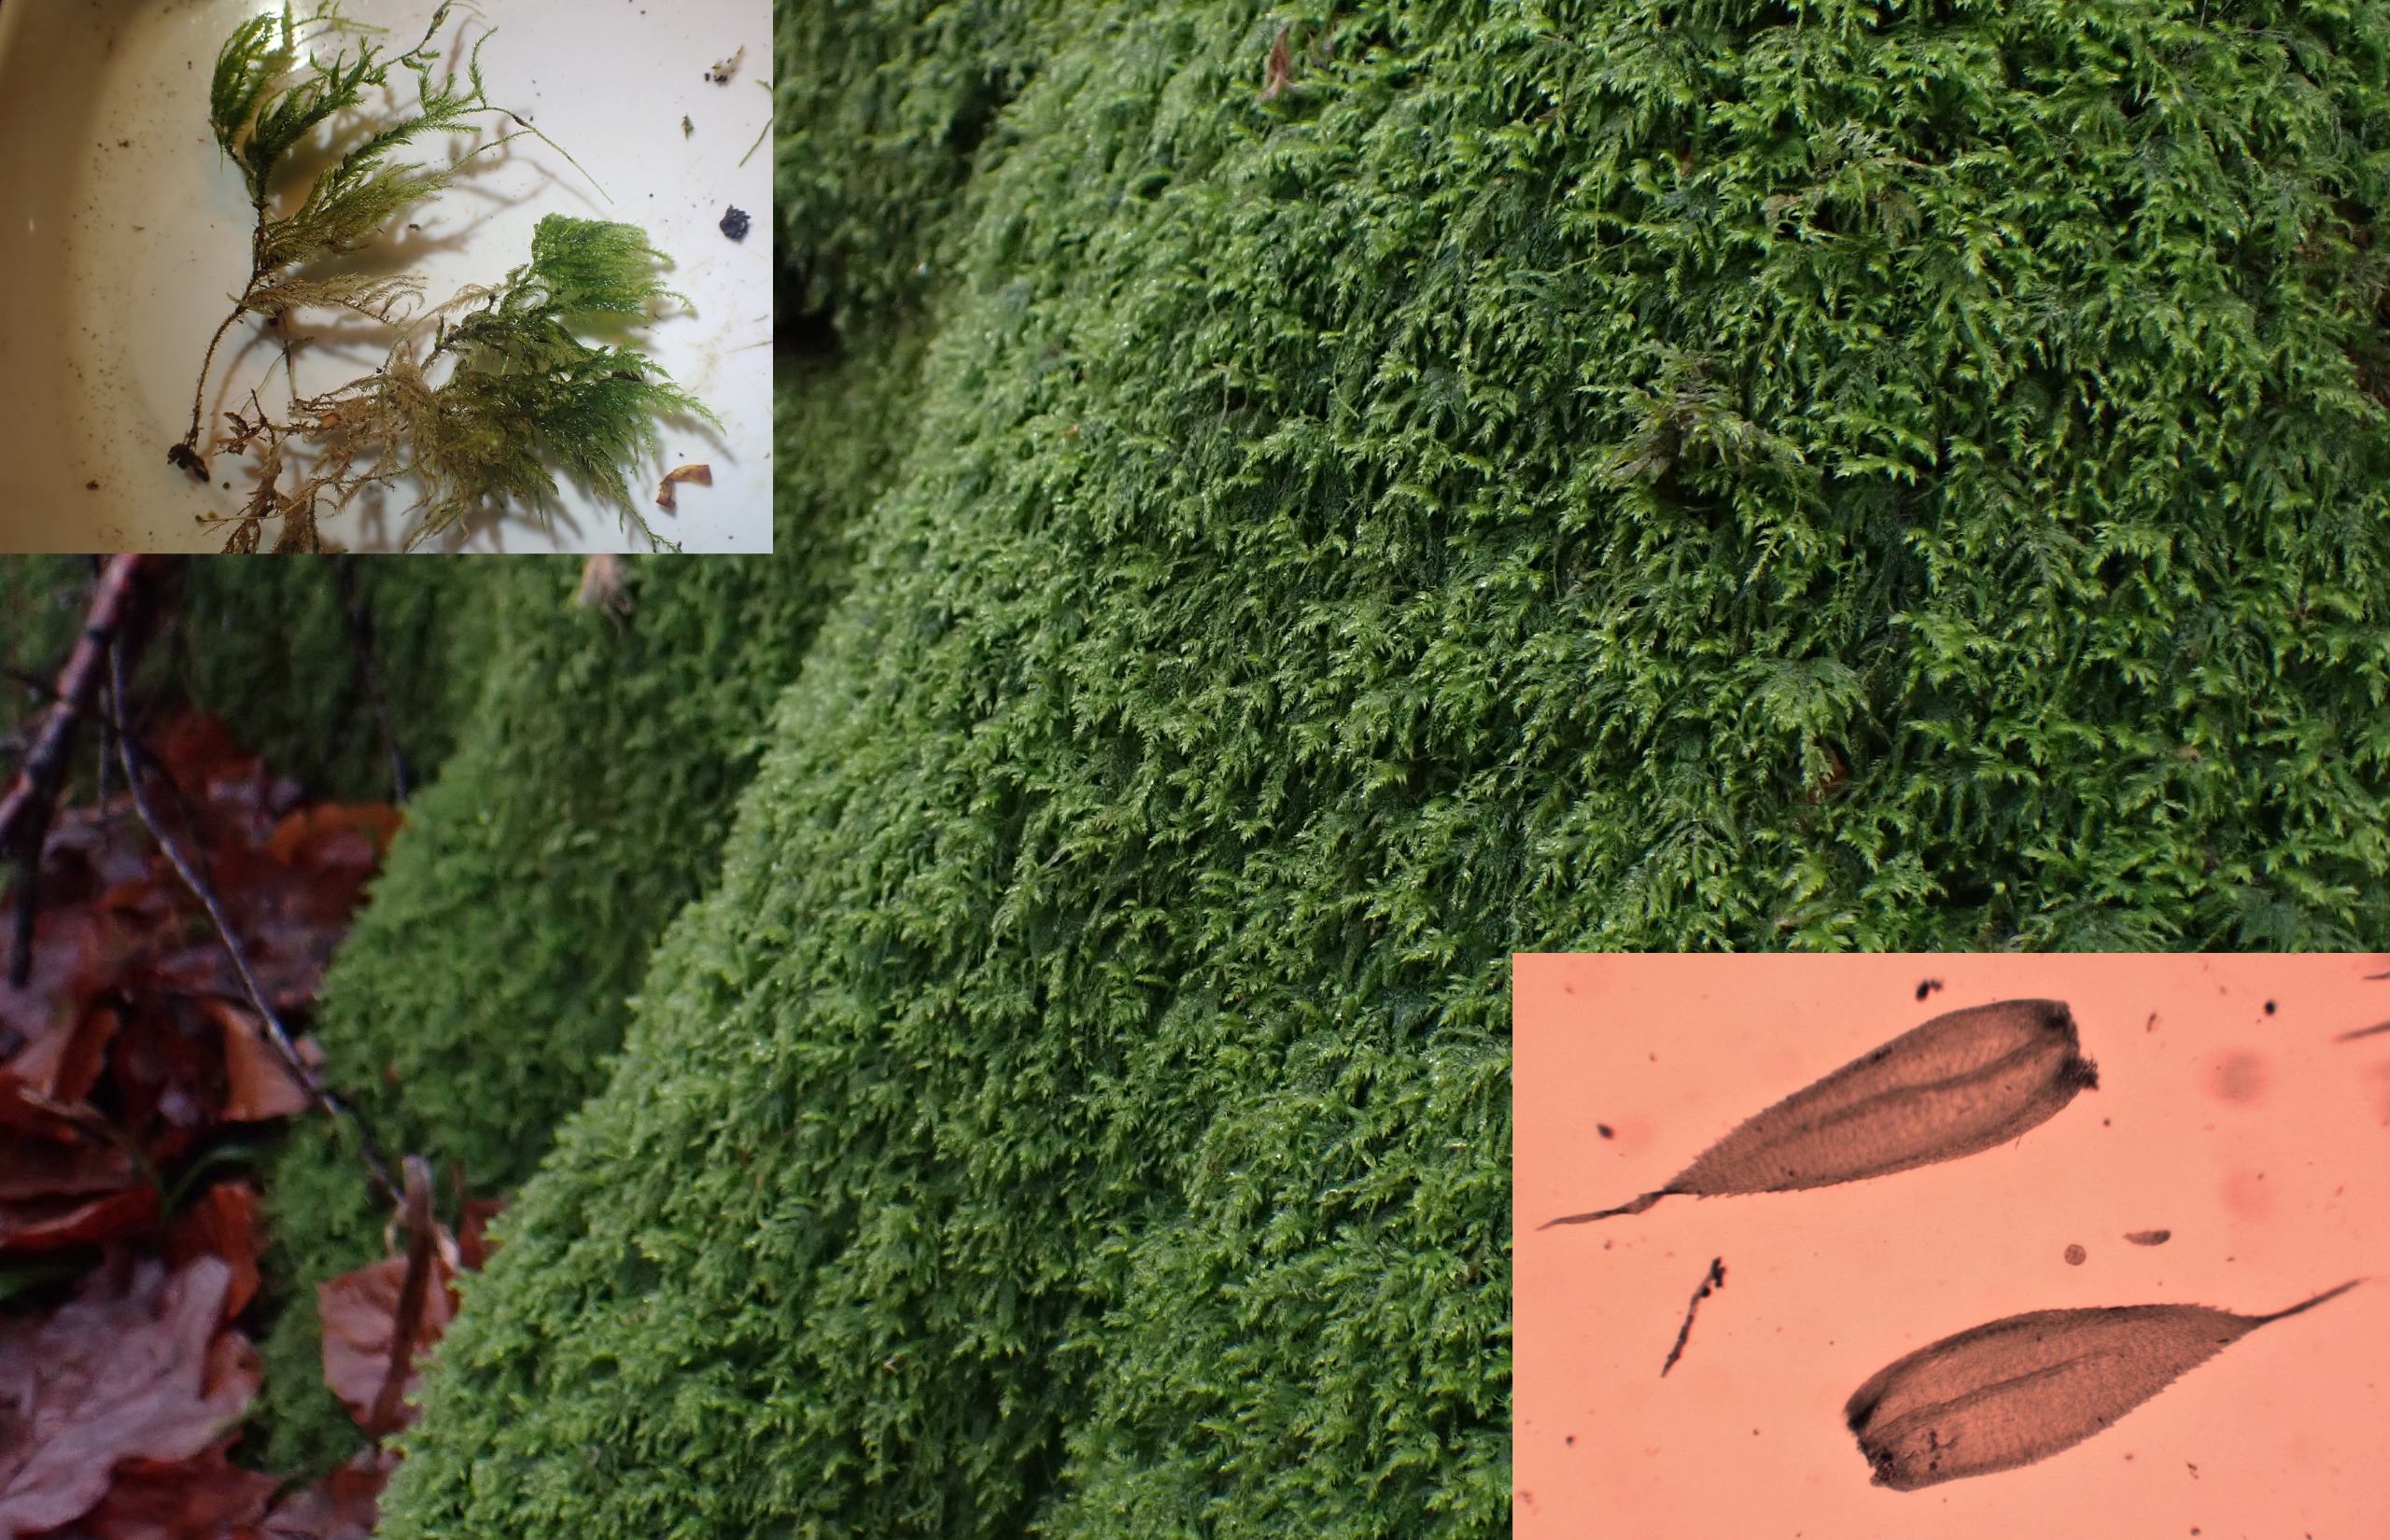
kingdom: Plantae
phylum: Bryophyta
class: Bryopsida
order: Hypnales
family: Lembophyllaceae
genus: Pseudisothecium
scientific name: Pseudisothecium myosuroides
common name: Slank stammemos
